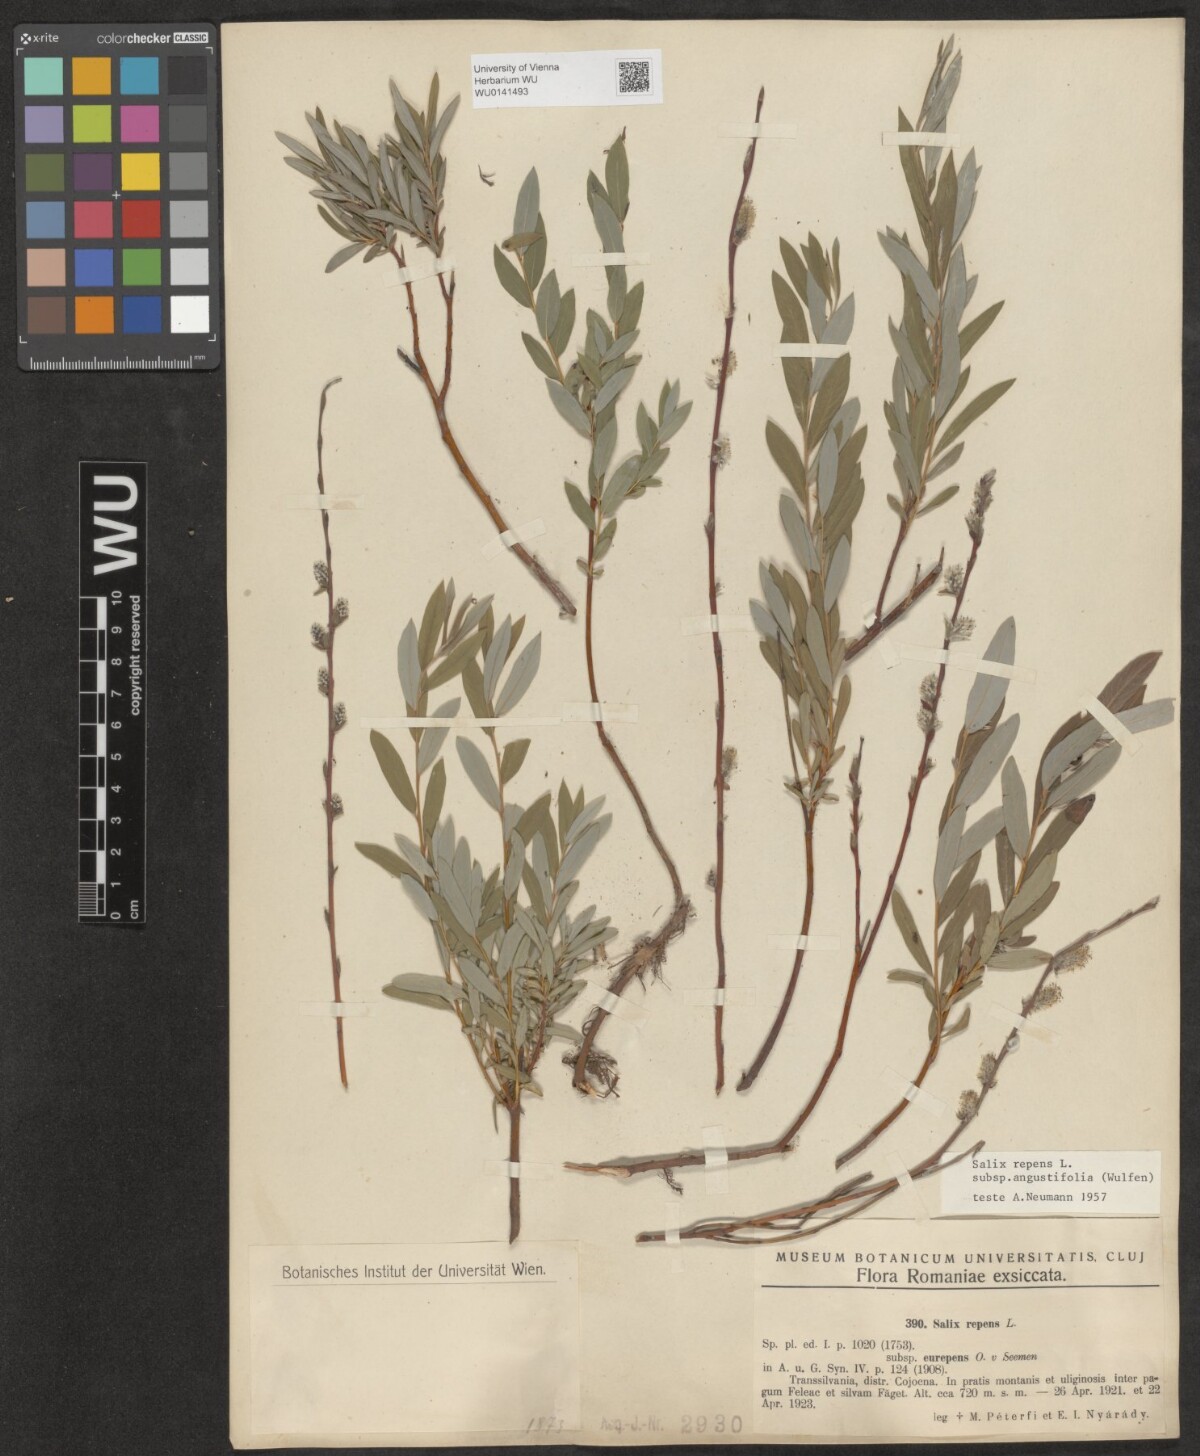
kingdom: Plantae
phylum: Tracheophyta
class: Magnoliopsida
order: Malpighiales
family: Salicaceae
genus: Salix
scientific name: Salix rosmarinifolia
